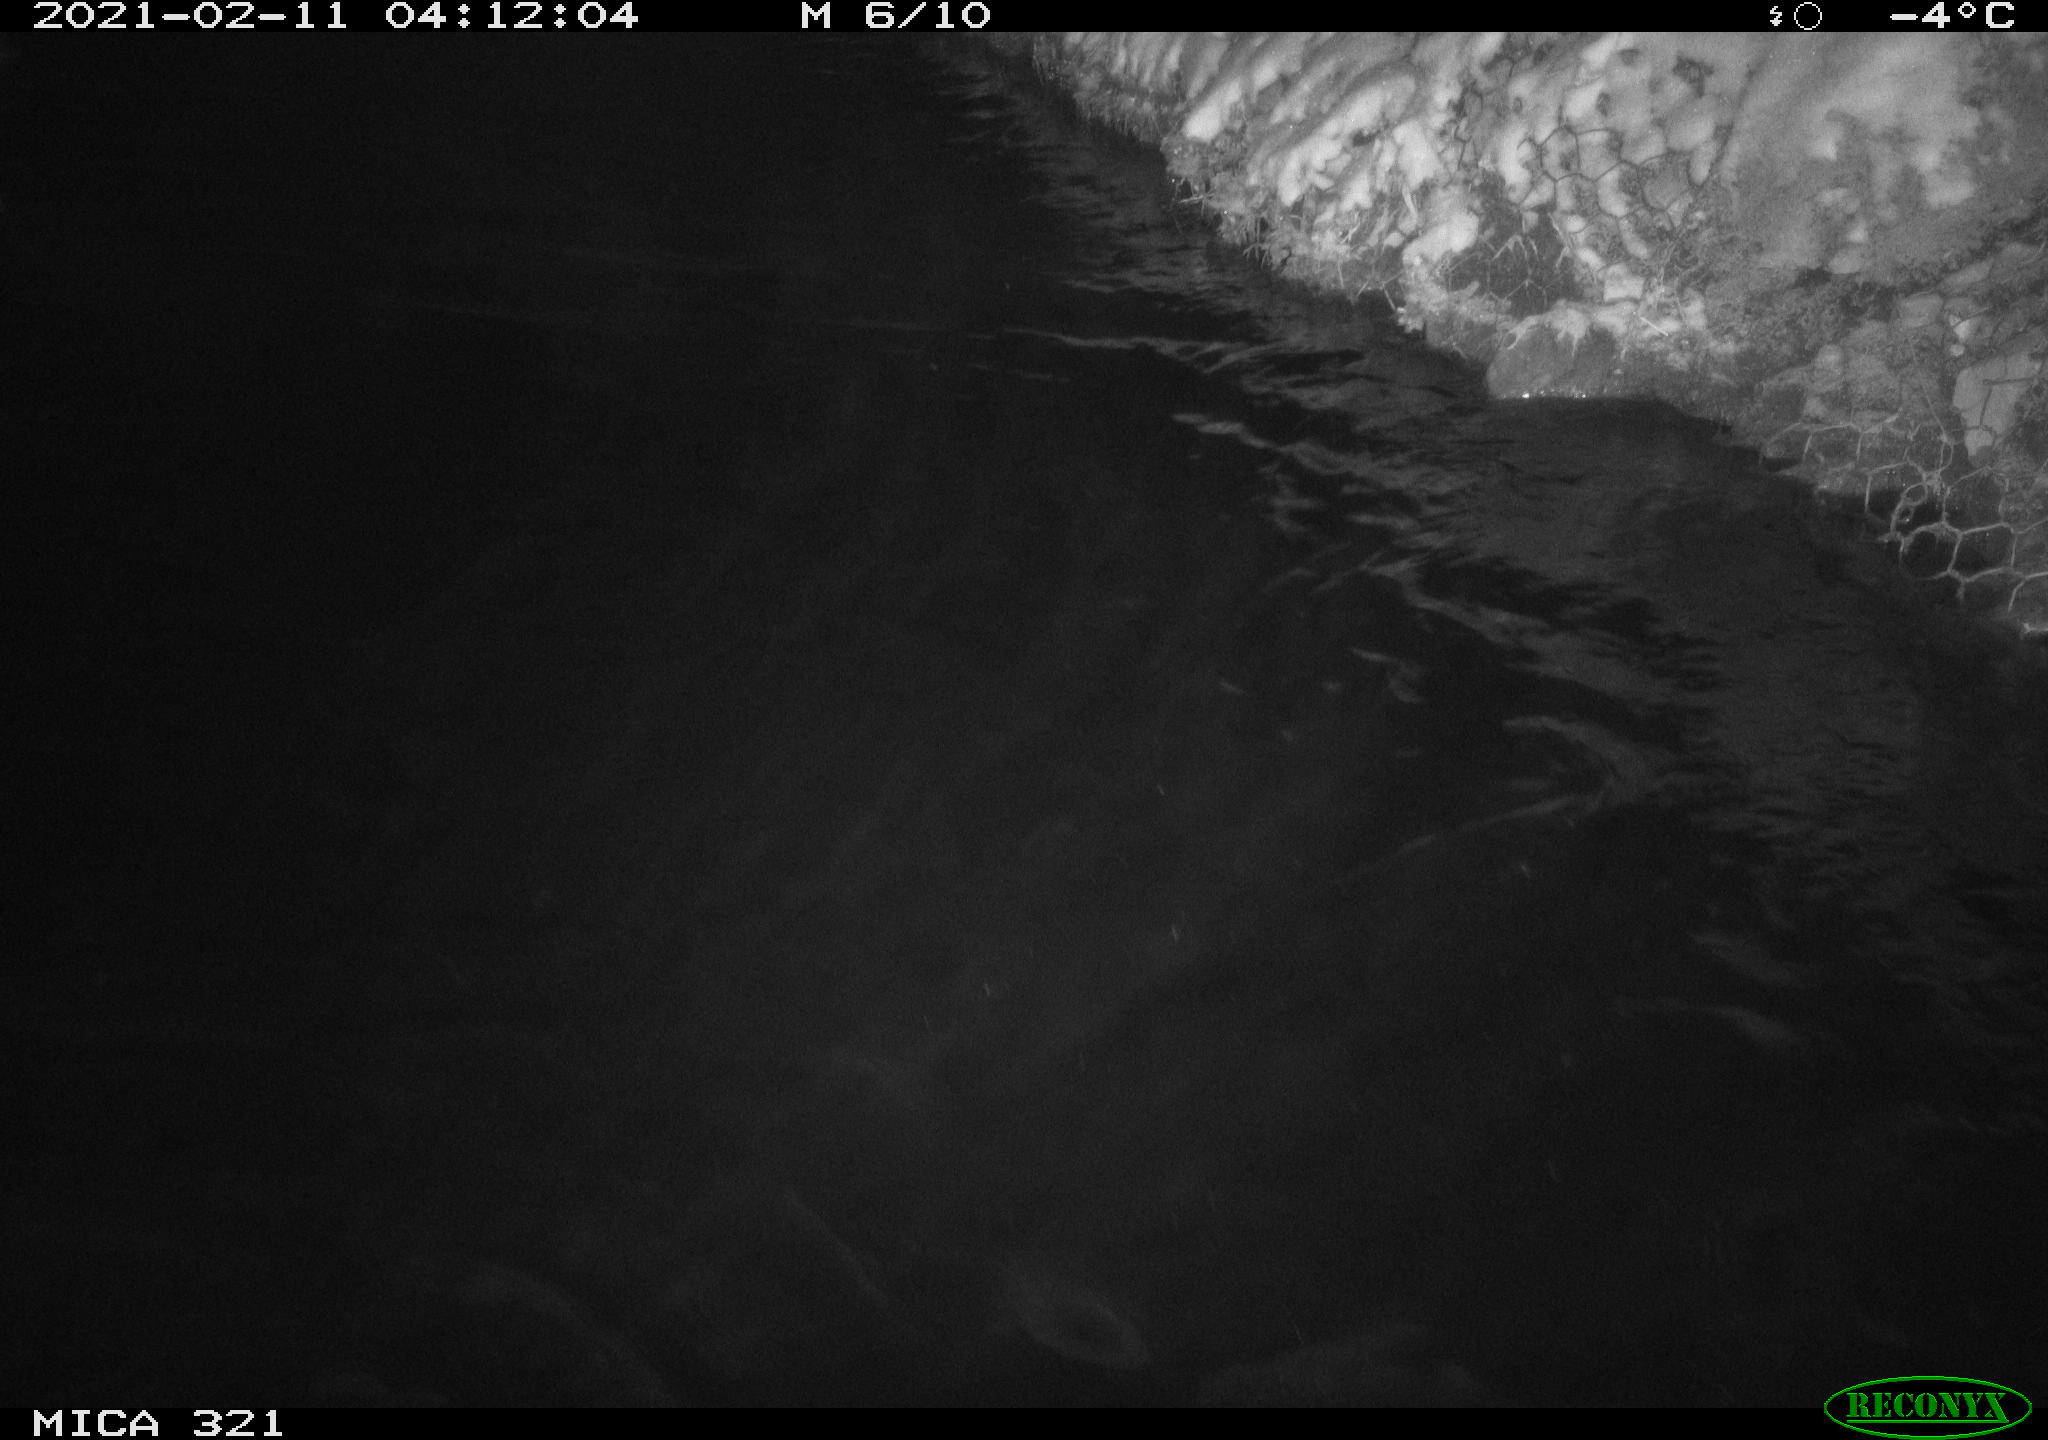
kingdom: Animalia
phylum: Chordata
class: Aves
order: Anseriformes
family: Anatidae
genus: Anas
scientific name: Anas platyrhynchos
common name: Mallard
